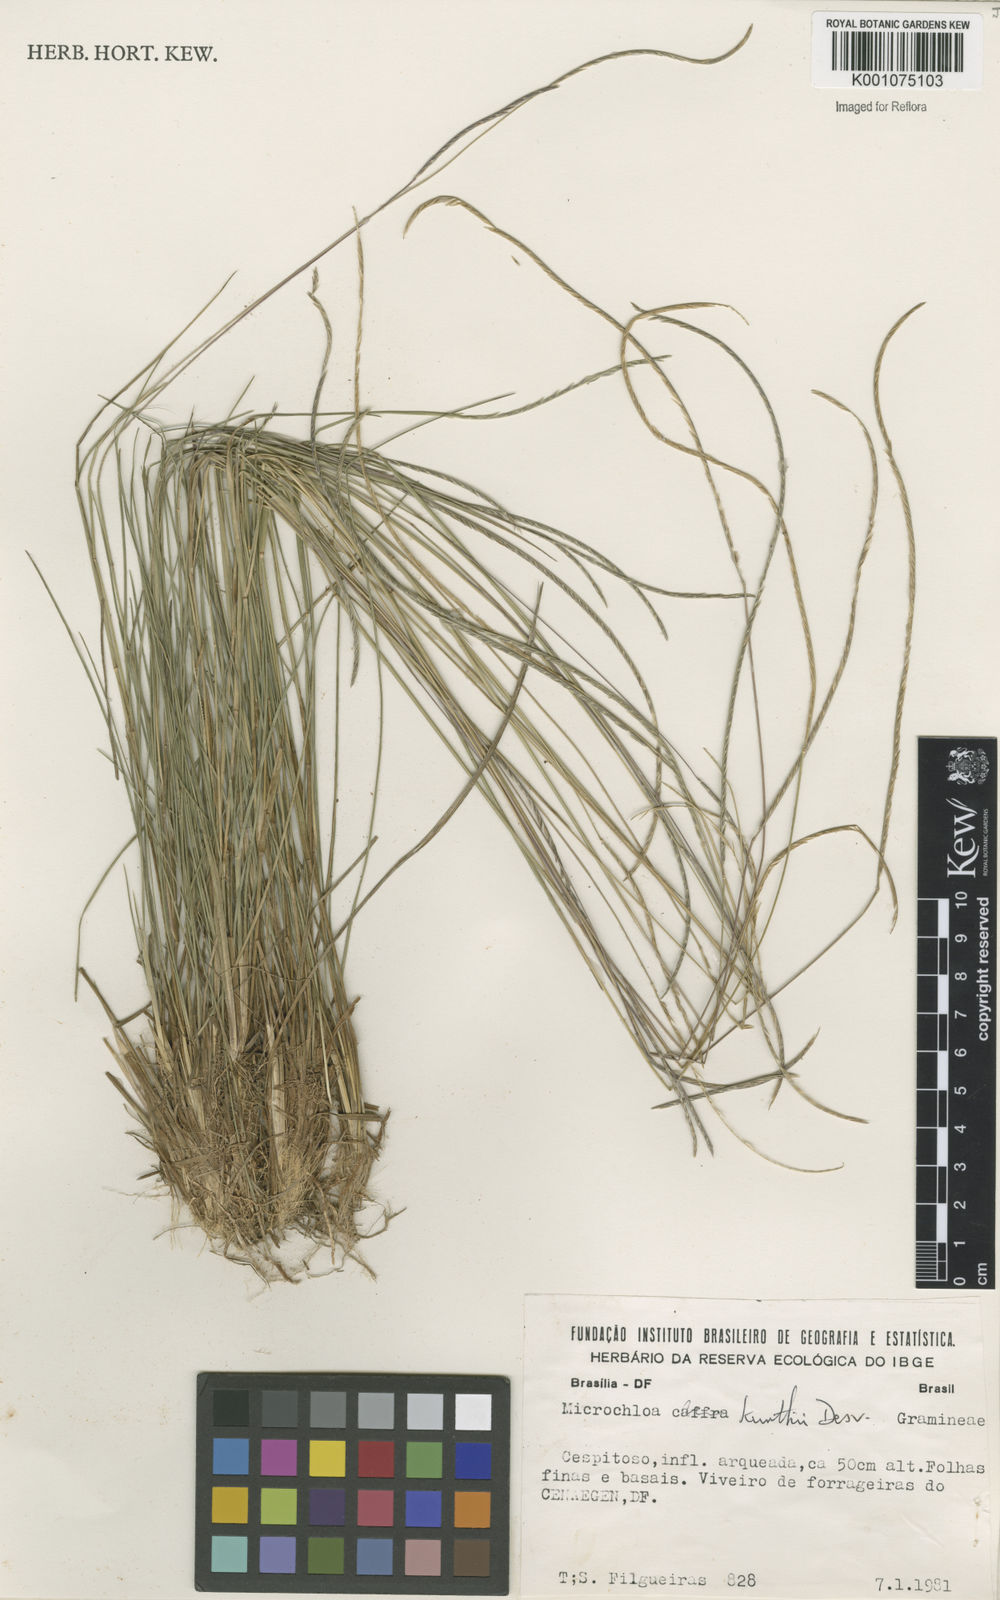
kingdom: Plantae
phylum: Tracheophyta
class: Liliopsida
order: Poales
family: Poaceae
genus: Microchloa
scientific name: Microchloa kunthii
